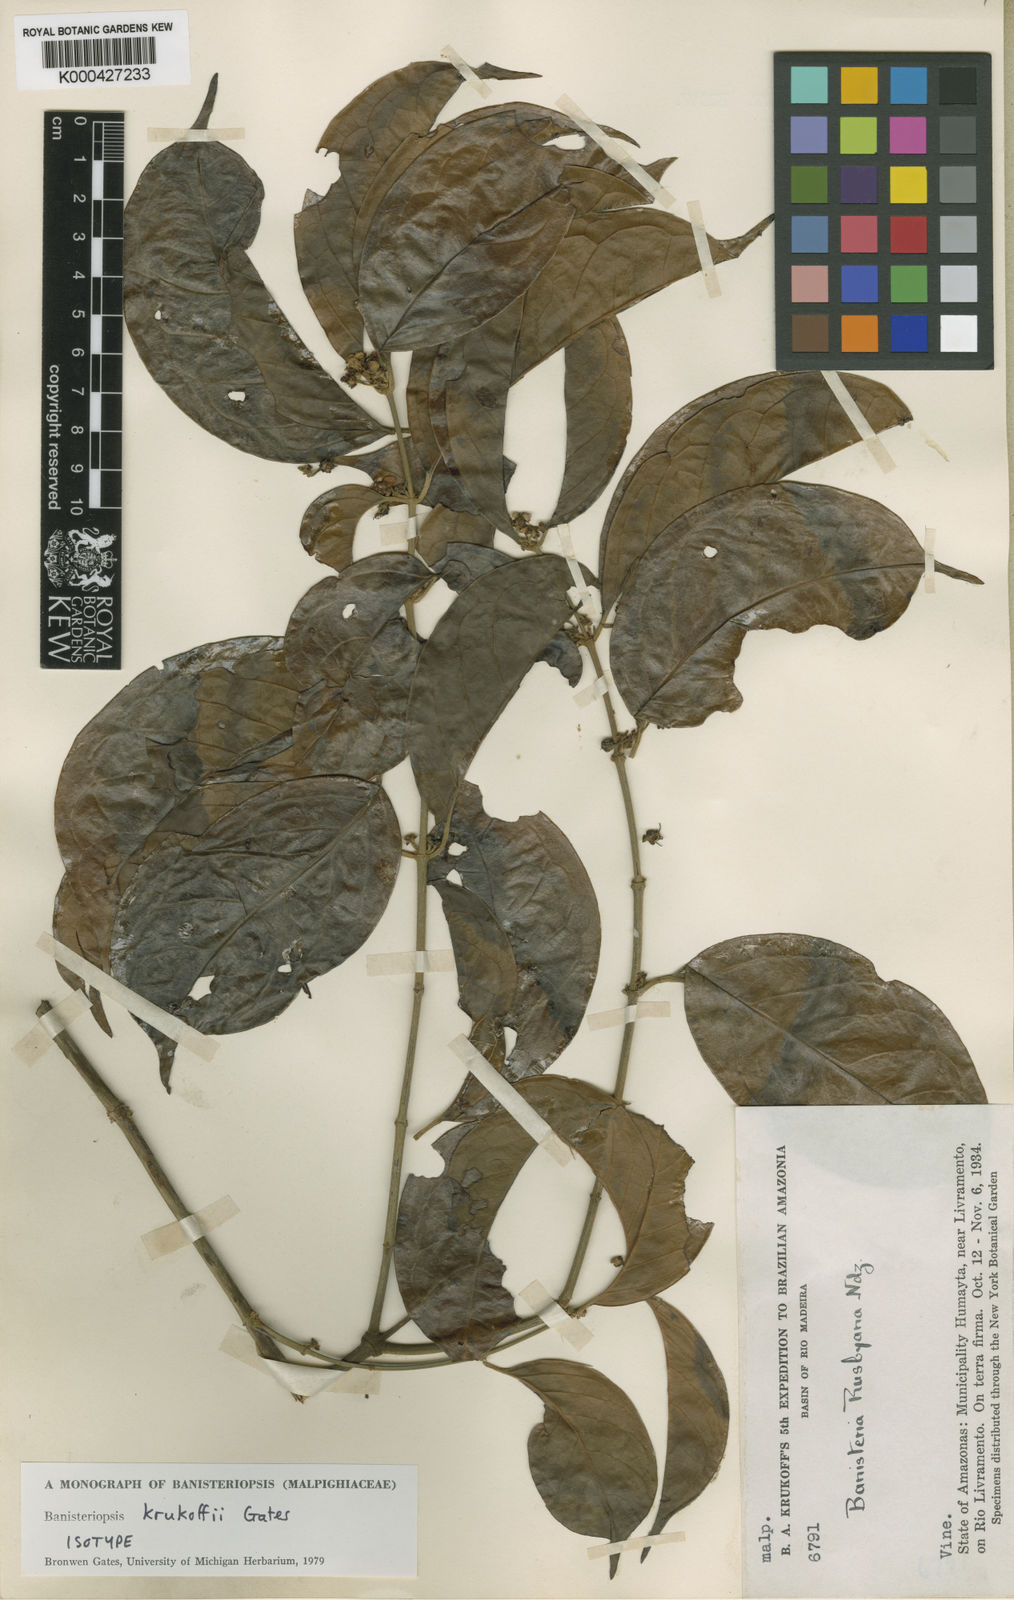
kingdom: Plantae
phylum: Tracheophyta
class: Magnoliopsida
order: Malpighiales
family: Malpighiaceae
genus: Diplopterys
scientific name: Diplopterys krukoffii
